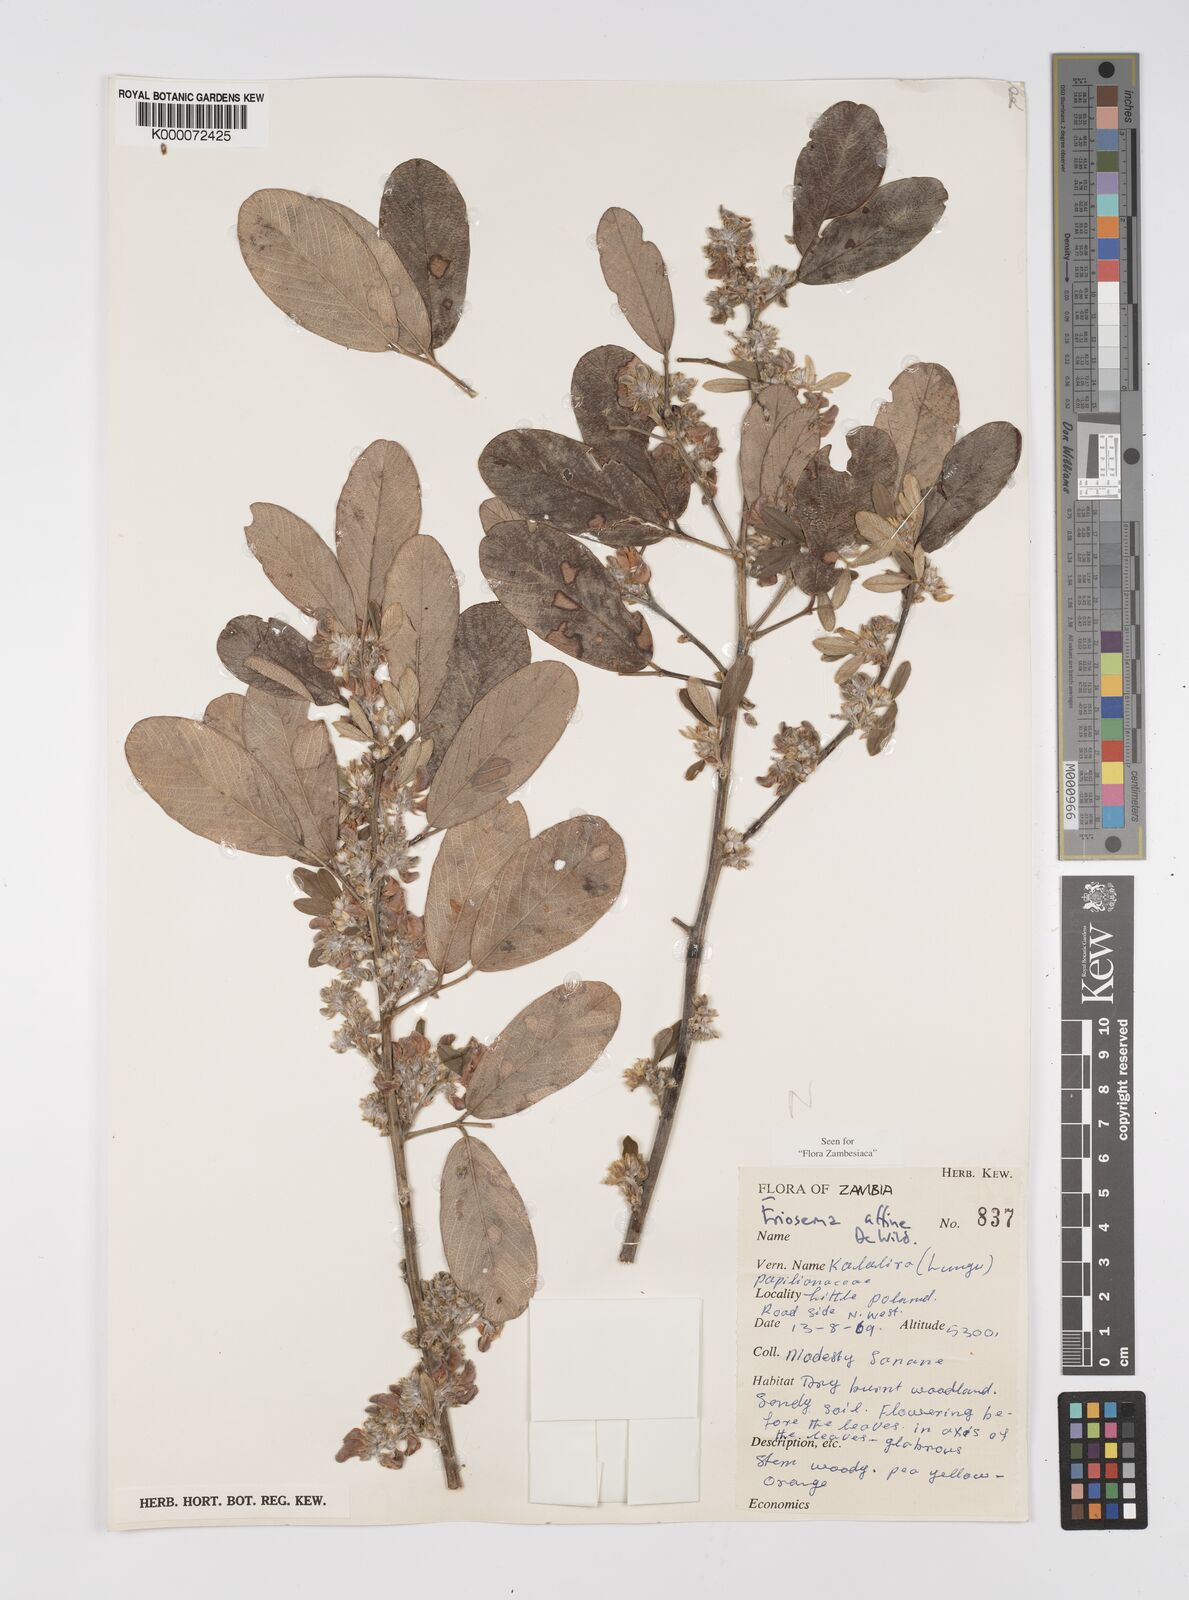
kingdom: Plantae
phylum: Tracheophyta
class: Magnoliopsida
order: Fabales
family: Fabaceae
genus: Eriosema
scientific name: Eriosema affine
